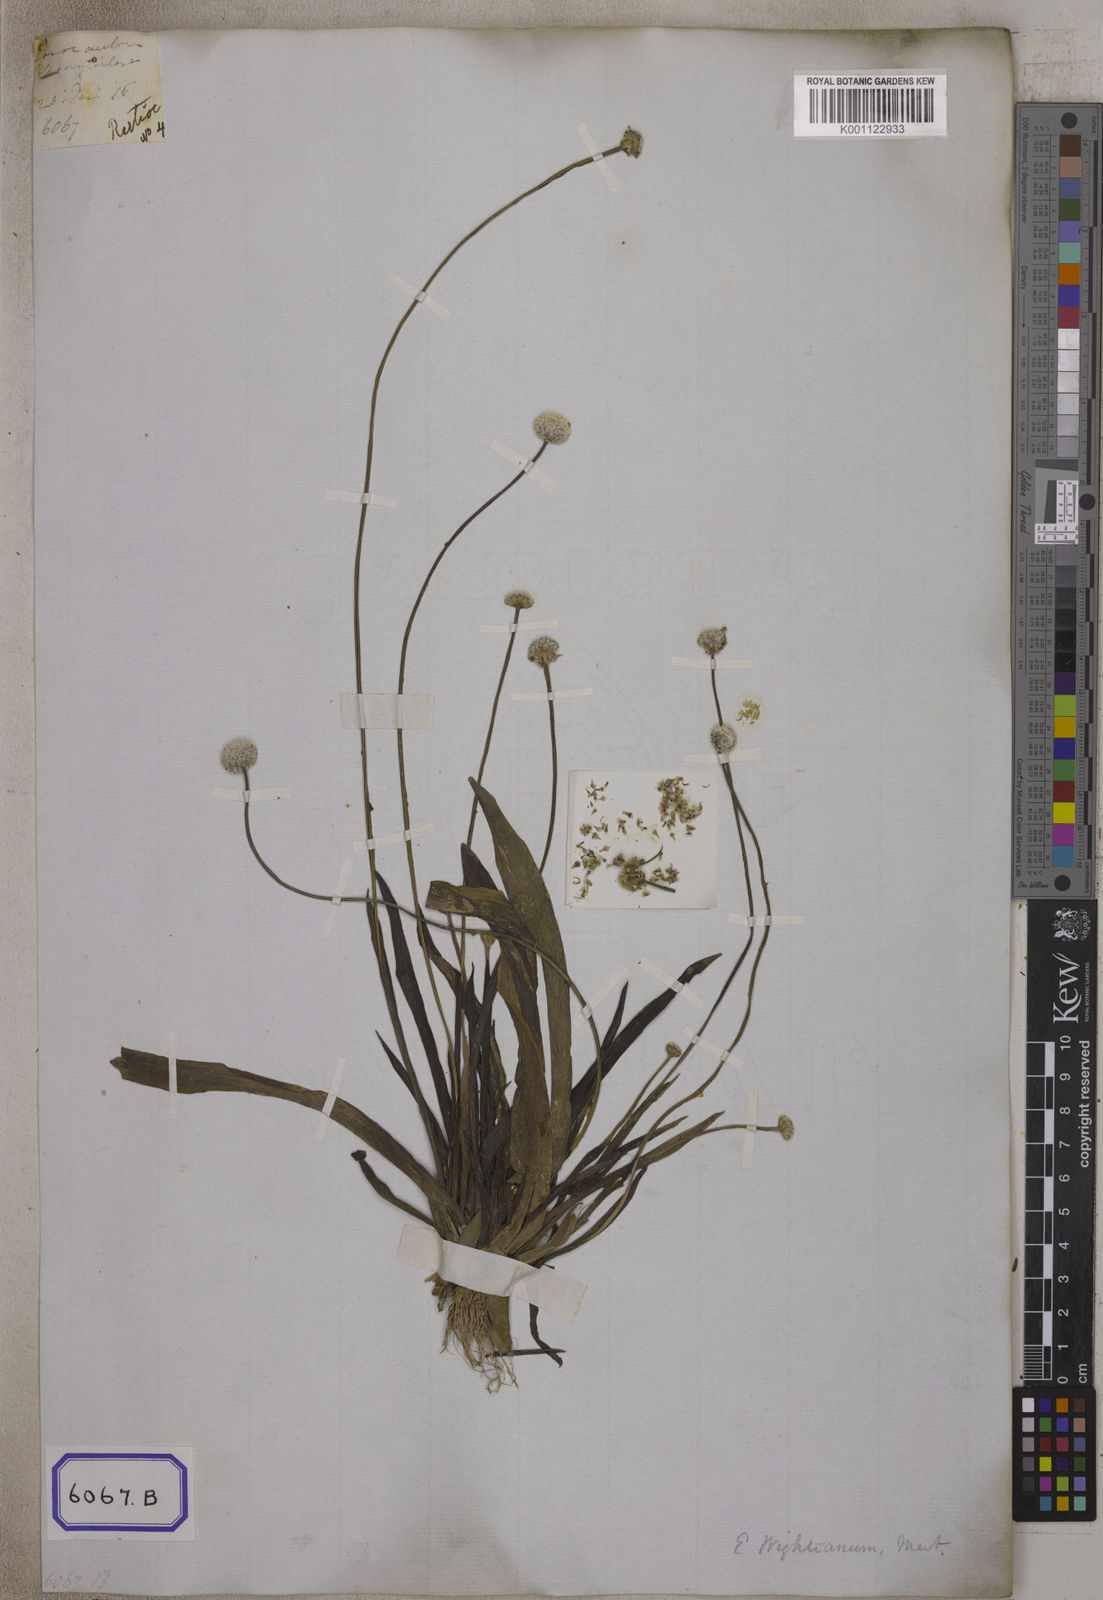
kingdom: Plantae
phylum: Tracheophyta
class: Liliopsida
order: Poales
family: Eriocaulaceae
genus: Eriocaulon
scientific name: Eriocaulon wightianum
